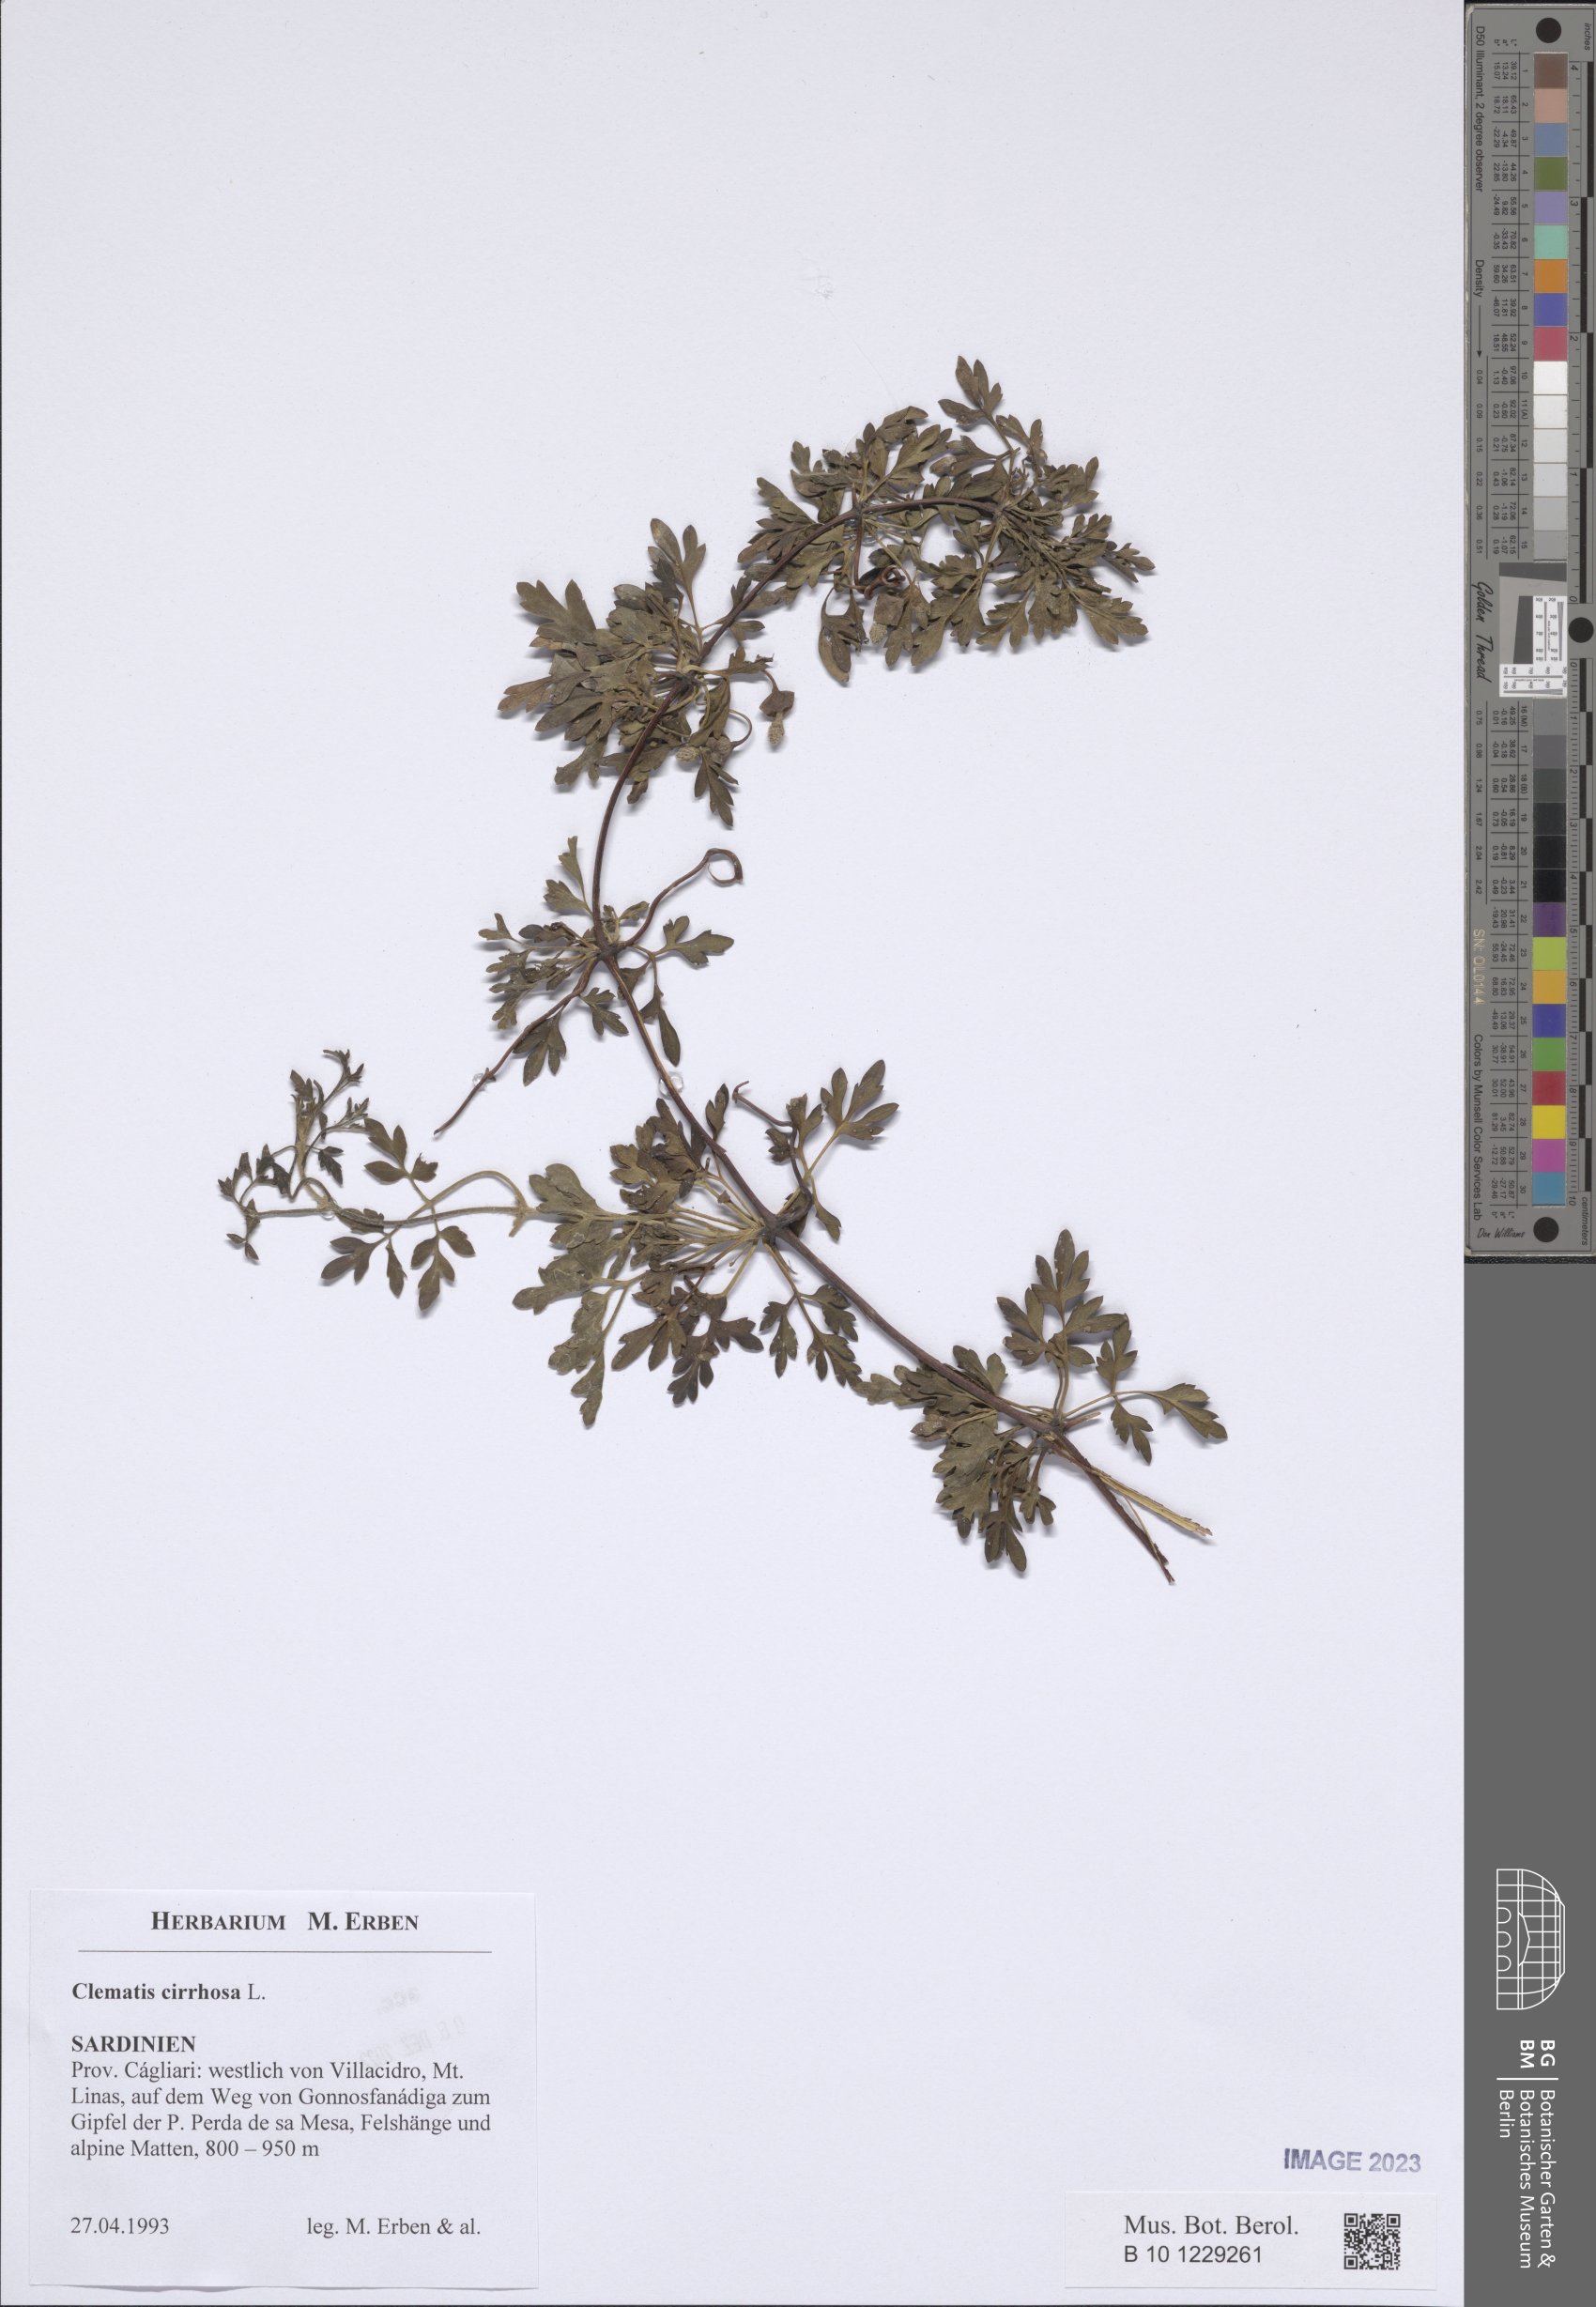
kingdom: Plantae
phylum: Tracheophyta
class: Magnoliopsida
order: Ranunculales
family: Ranunculaceae
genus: Clematis
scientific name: Clematis cirrhosa
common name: Early virgin's-bower
